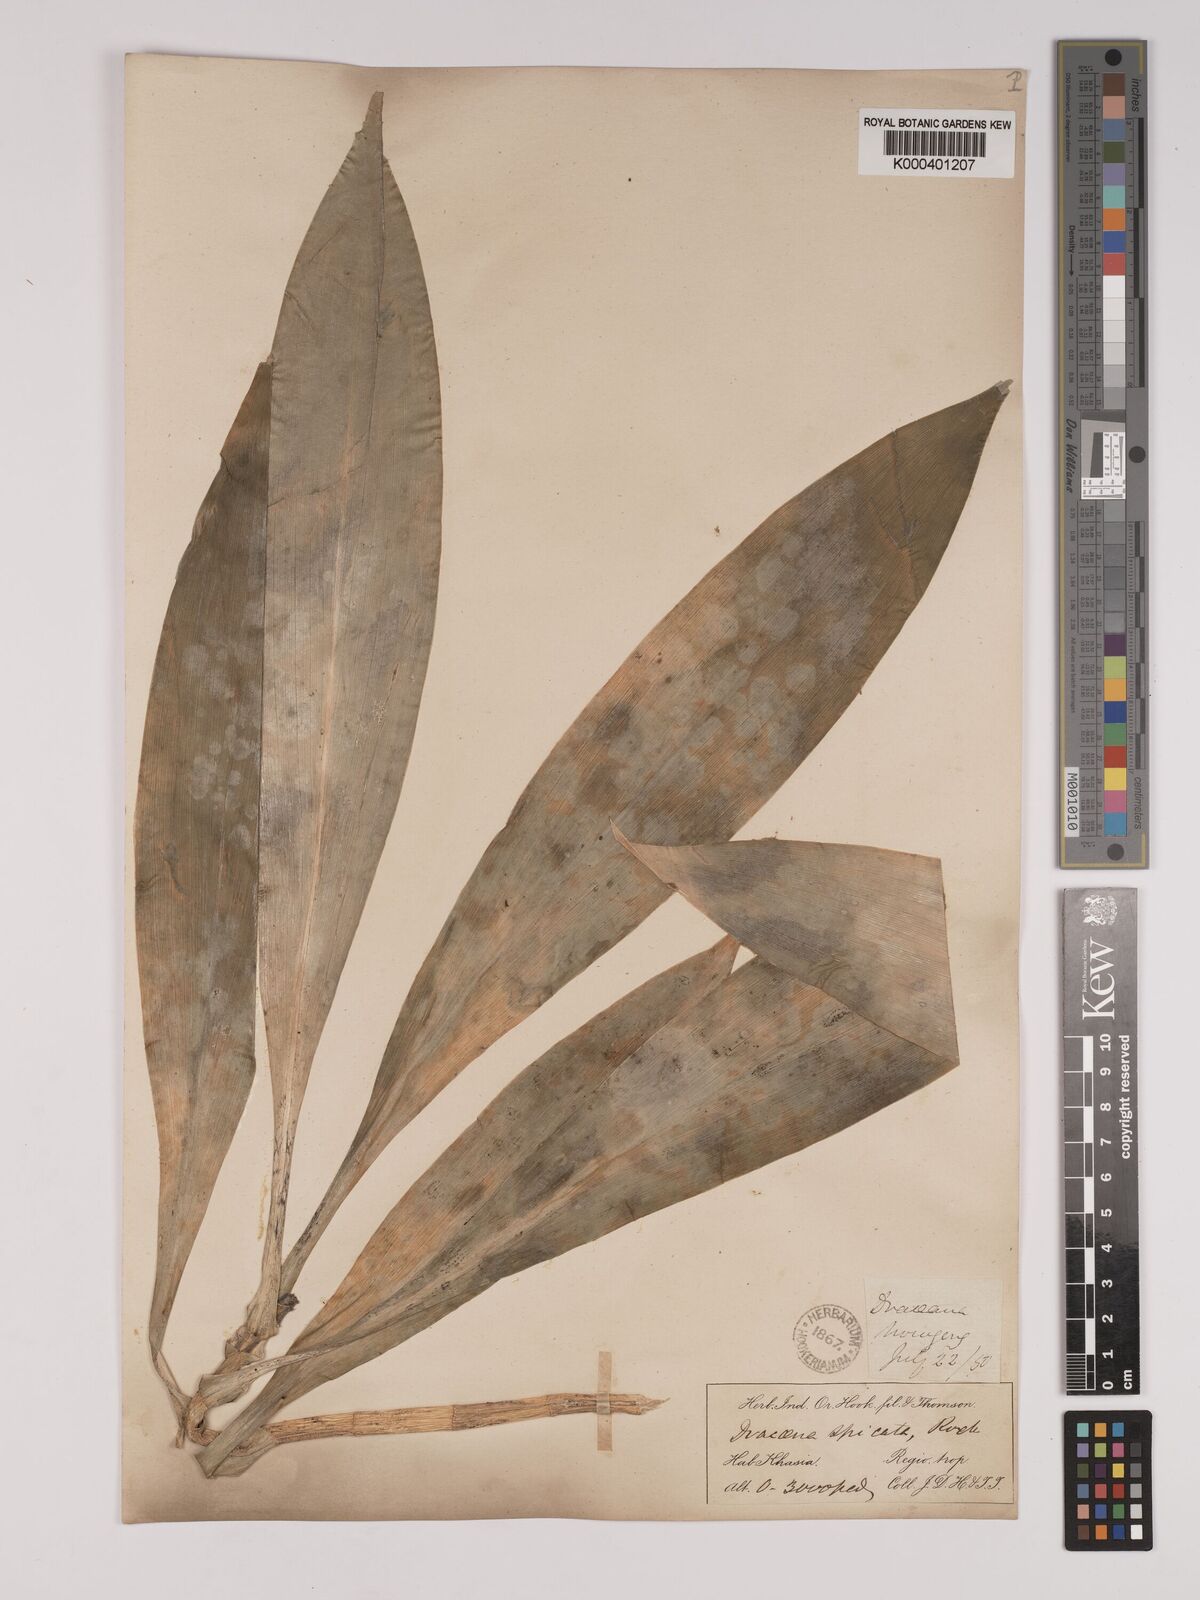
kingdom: Plantae
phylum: Tracheophyta
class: Liliopsida
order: Asparagales
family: Asparagaceae
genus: Dracaena
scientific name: Dracaena terniflora
